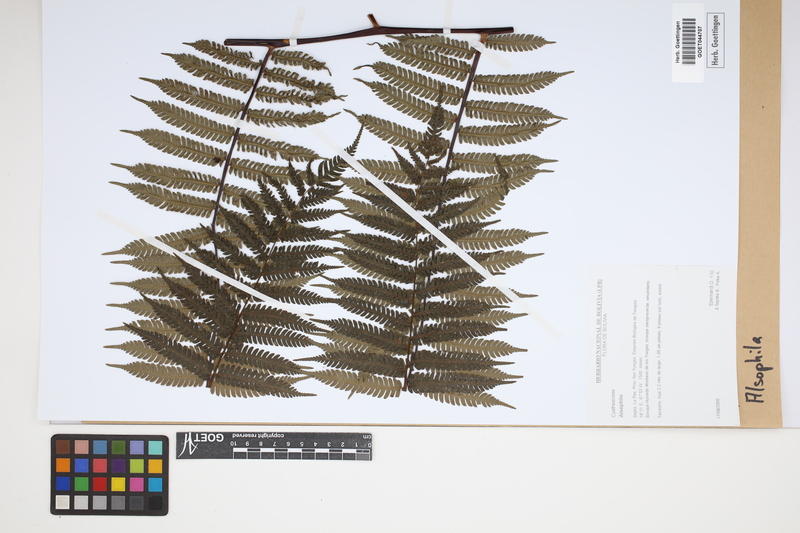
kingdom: Plantae
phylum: Tracheophyta
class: Polypodiopsida
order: Cyatheales
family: Cyatheaceae
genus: Alsophila
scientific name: Alsophila
